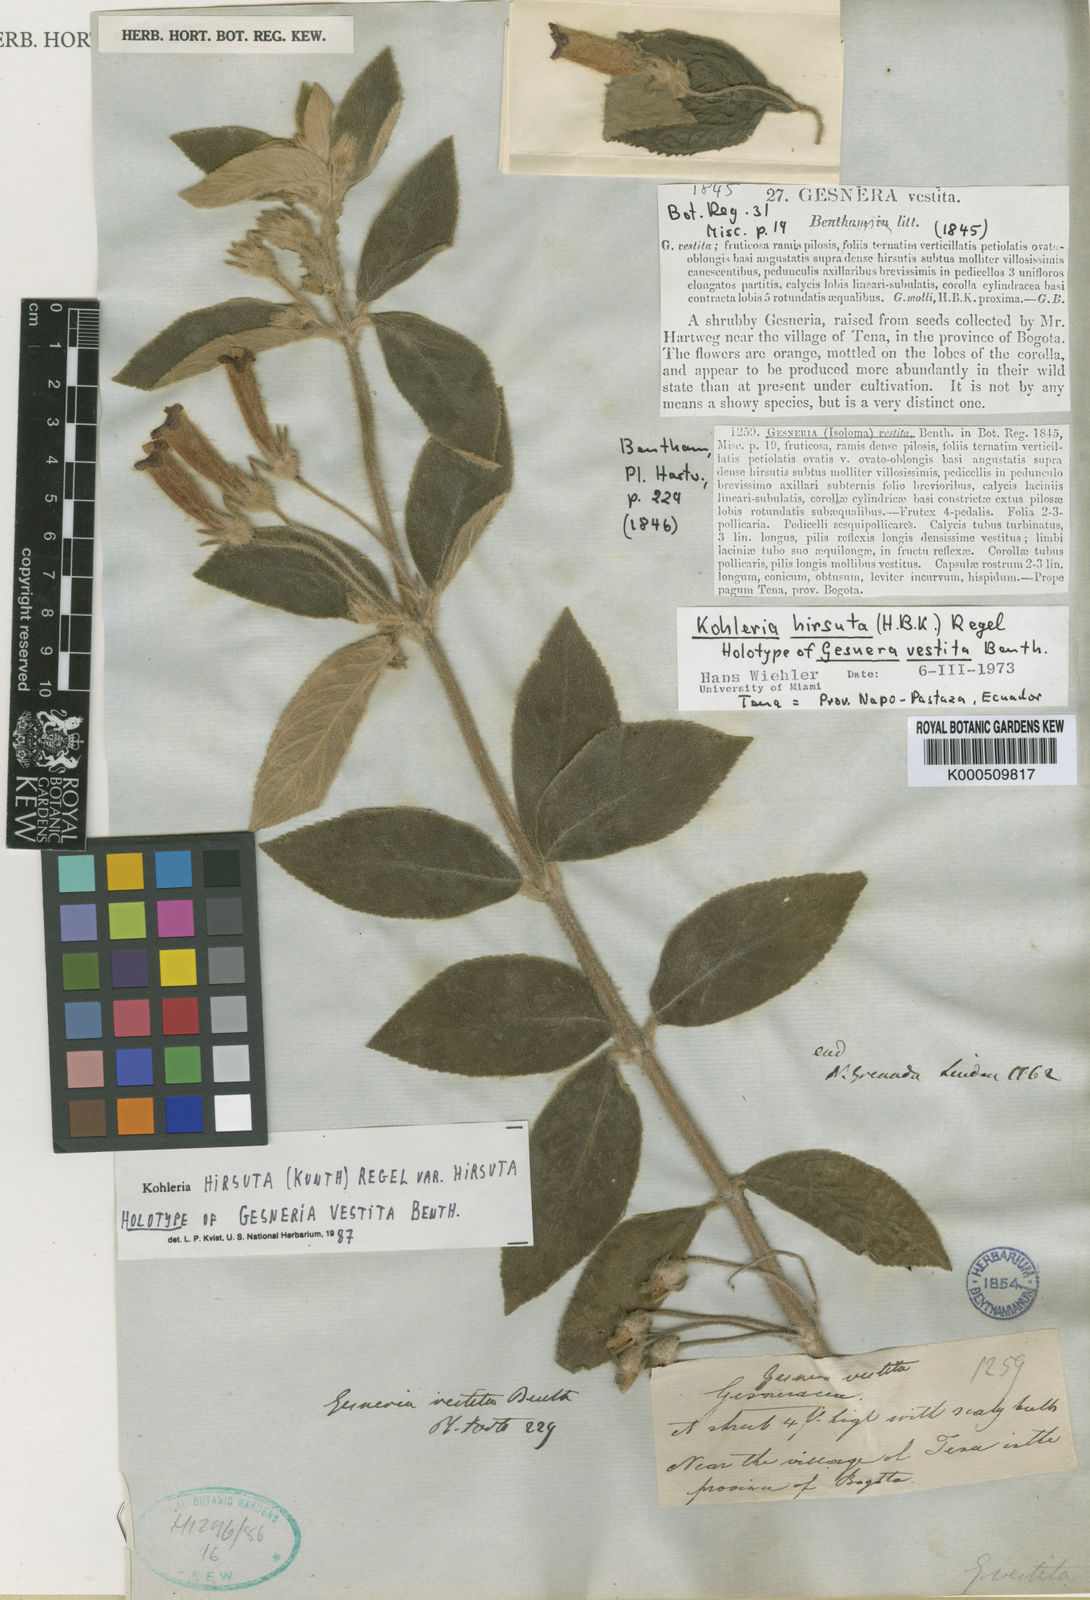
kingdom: Plantae
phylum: Tracheophyta
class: Magnoliopsida
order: Lamiales
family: Gesneriaceae
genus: Kohleria
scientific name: Kohleria hirsuta
